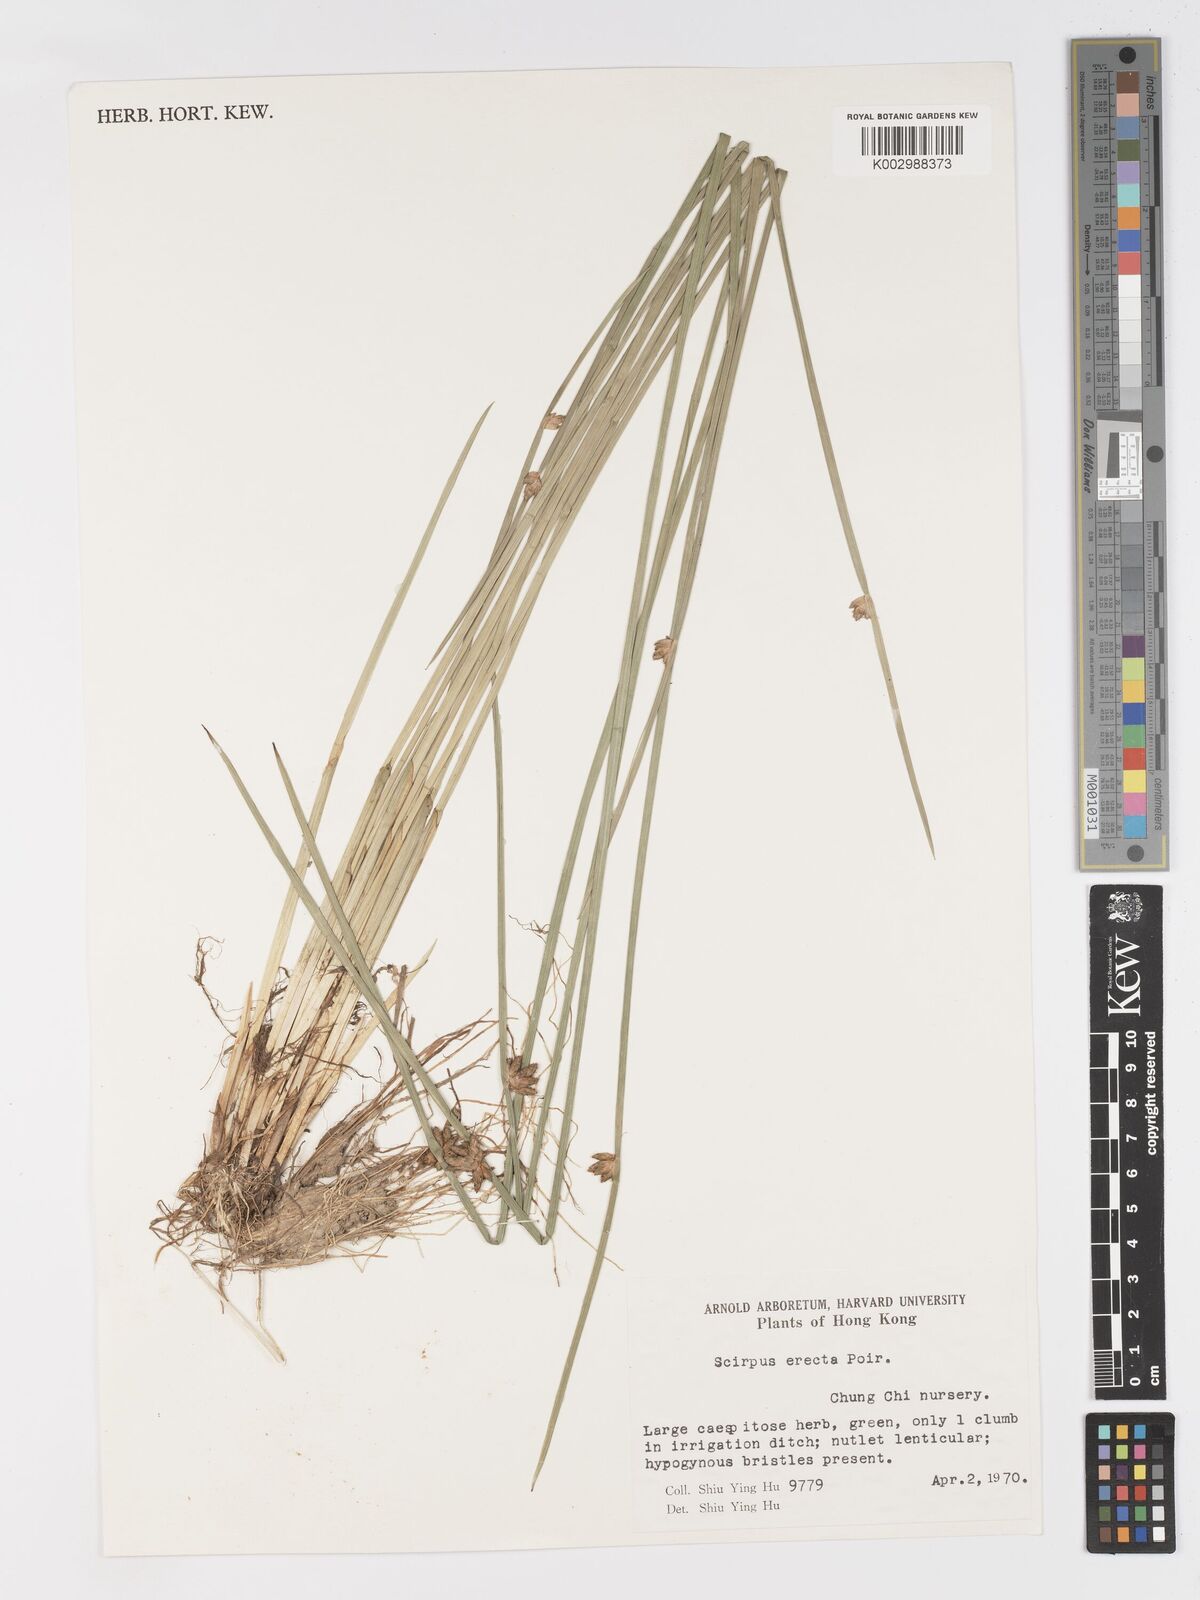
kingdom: Plantae
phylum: Tracheophyta
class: Liliopsida
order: Poales
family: Cyperaceae
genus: Schoenoplectiella
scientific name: Schoenoplectiella juncoides
